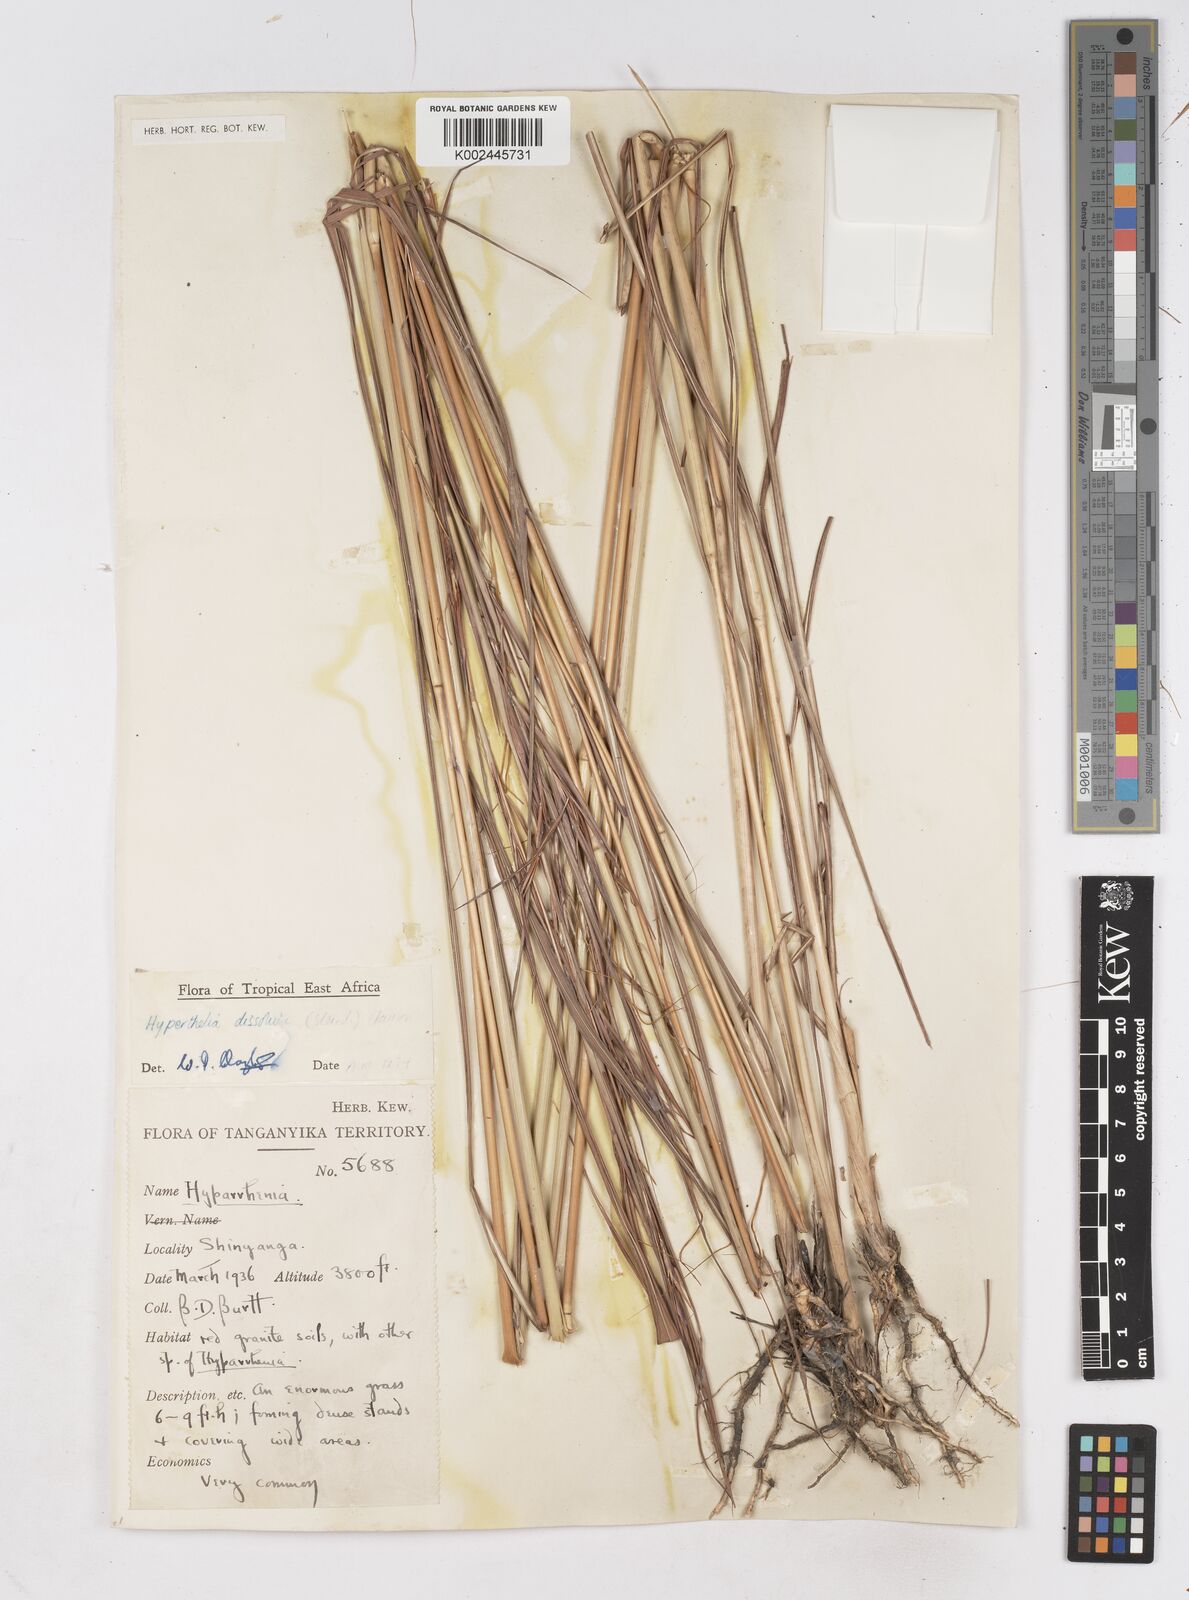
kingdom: Plantae
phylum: Tracheophyta
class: Liliopsida
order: Poales
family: Poaceae
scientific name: Poaceae
